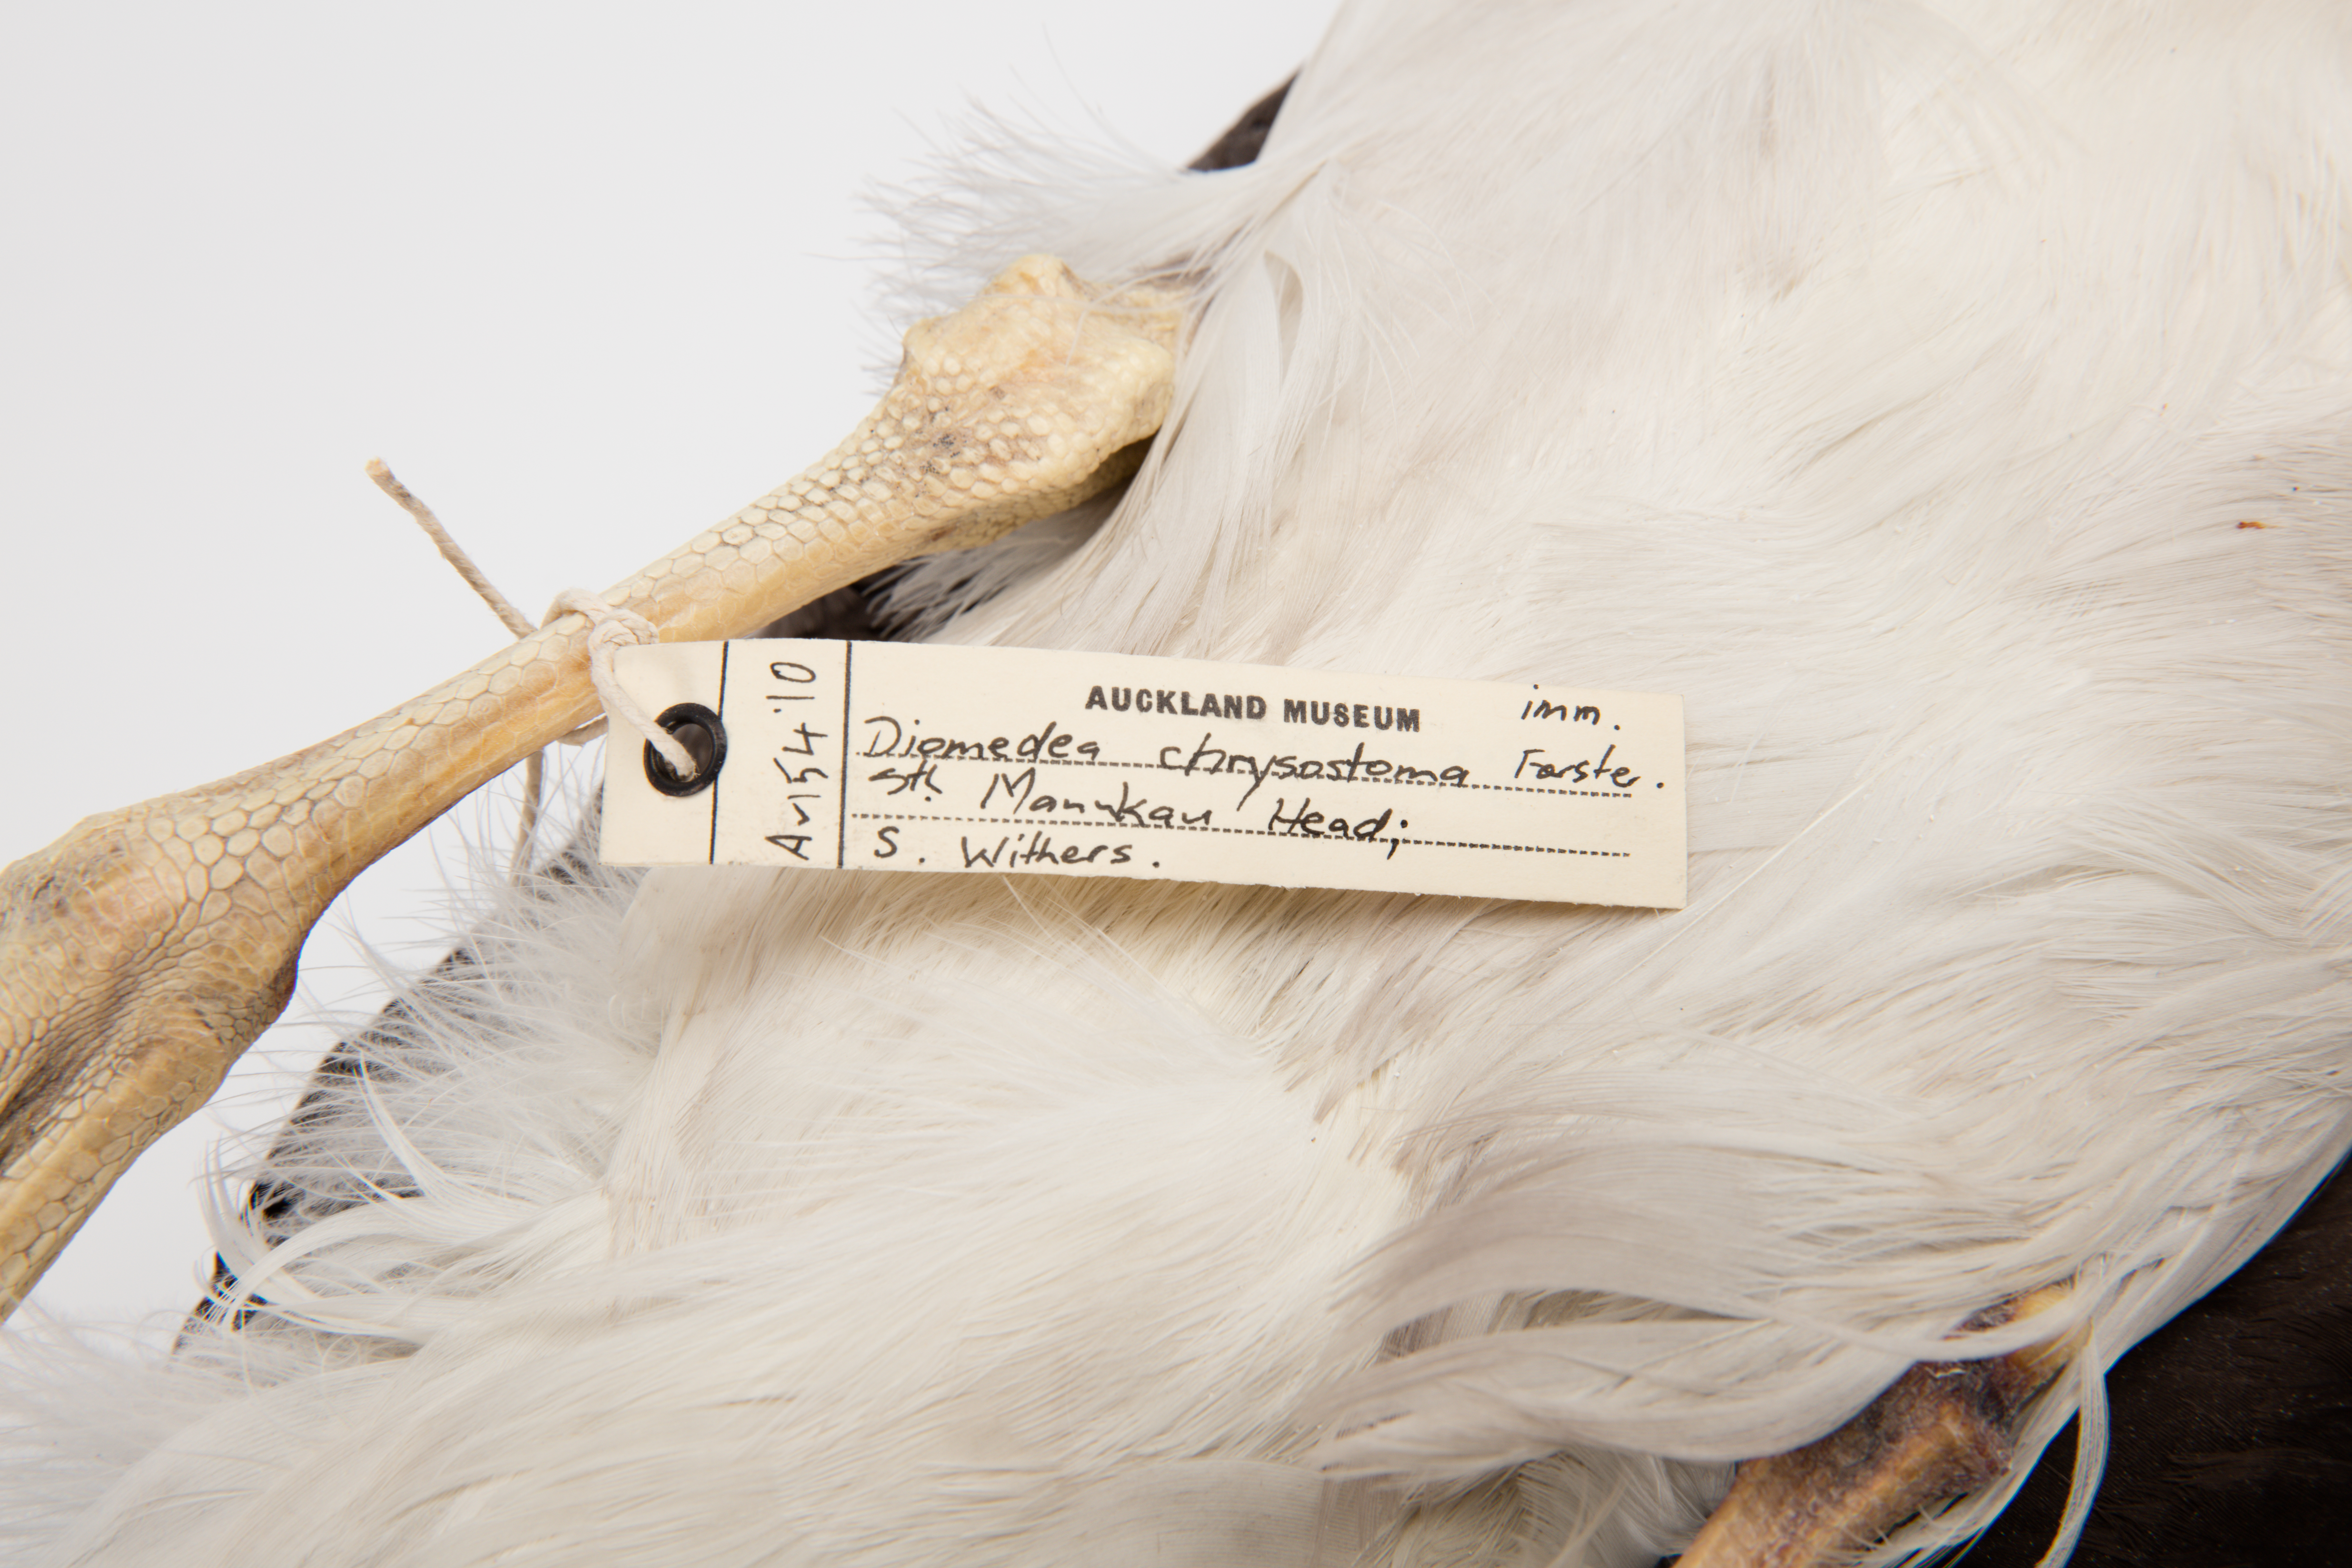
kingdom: Animalia
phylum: Chordata
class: Aves
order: Procellariiformes
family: Diomedeidae
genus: Thalassarche
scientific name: Thalassarche chrysostoma
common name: Grey-headed albatross
